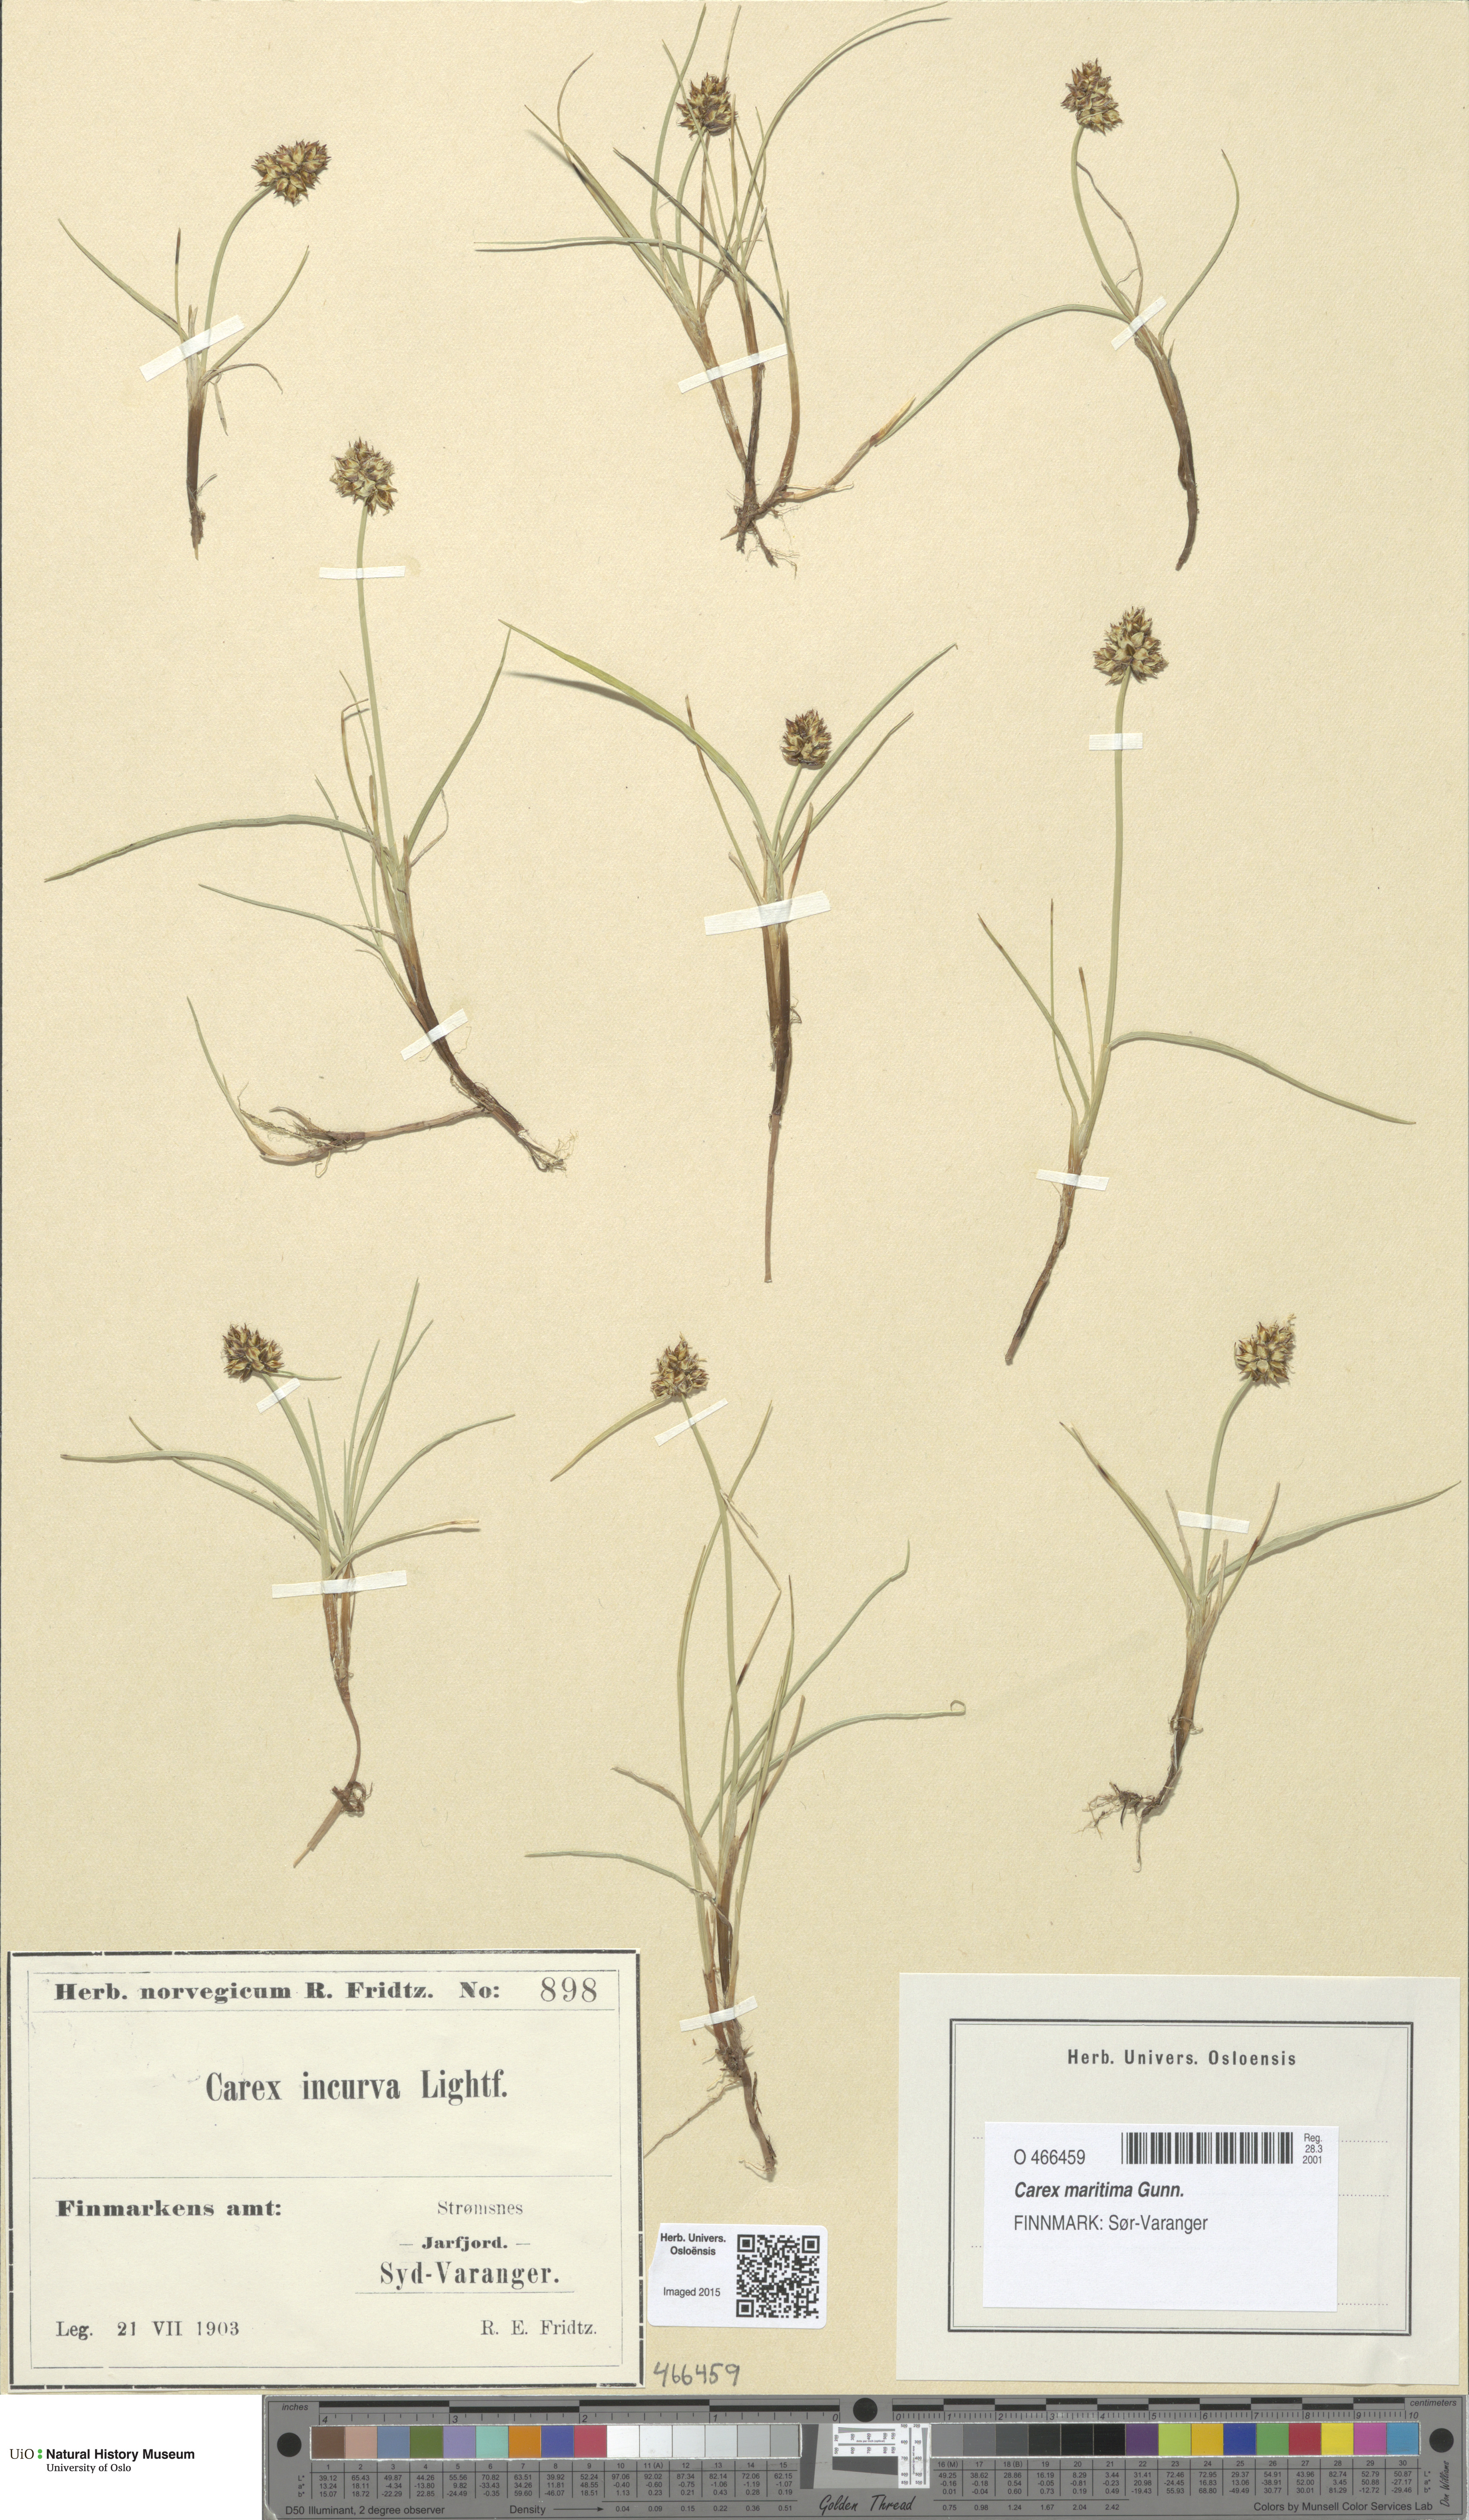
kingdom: Plantae
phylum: Tracheophyta
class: Liliopsida
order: Poales
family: Cyperaceae
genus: Carex
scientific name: Carex maritima
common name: Curved sedge
